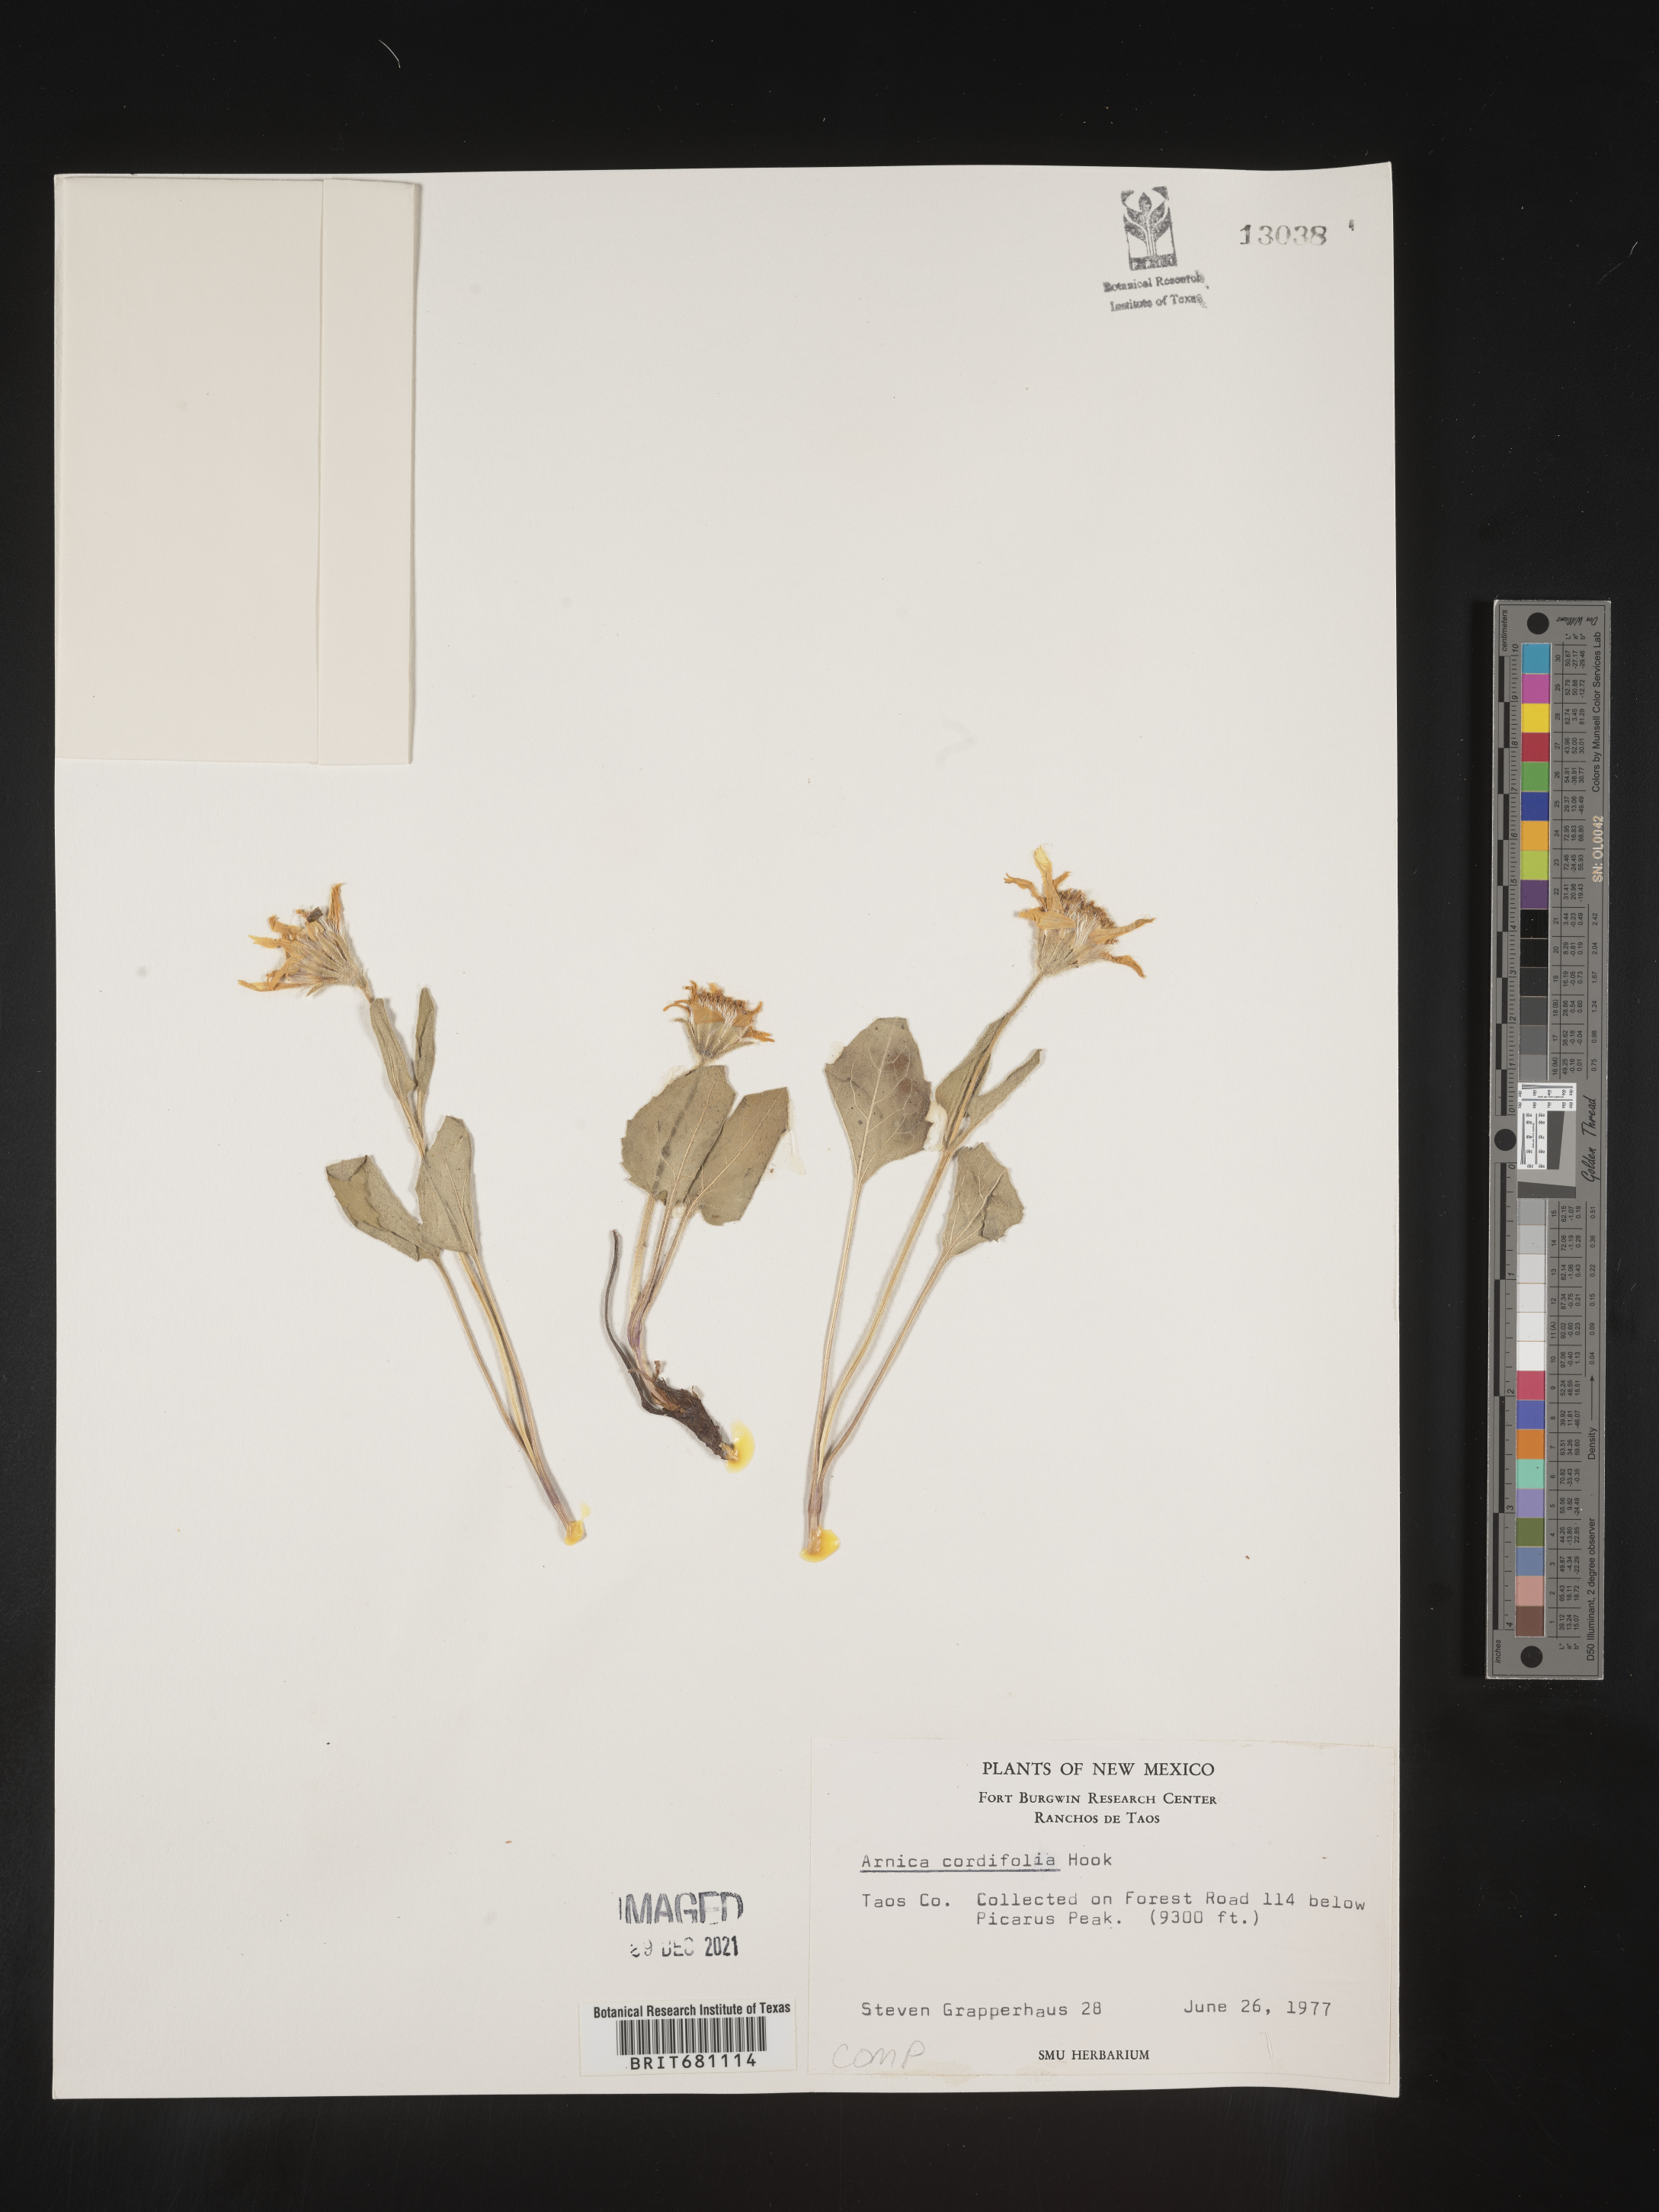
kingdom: Plantae
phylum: Tracheophyta
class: Magnoliopsida
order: Asterales
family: Asteraceae
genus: Arnica
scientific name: Arnica cordifolia
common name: Heart-leaf arnica
